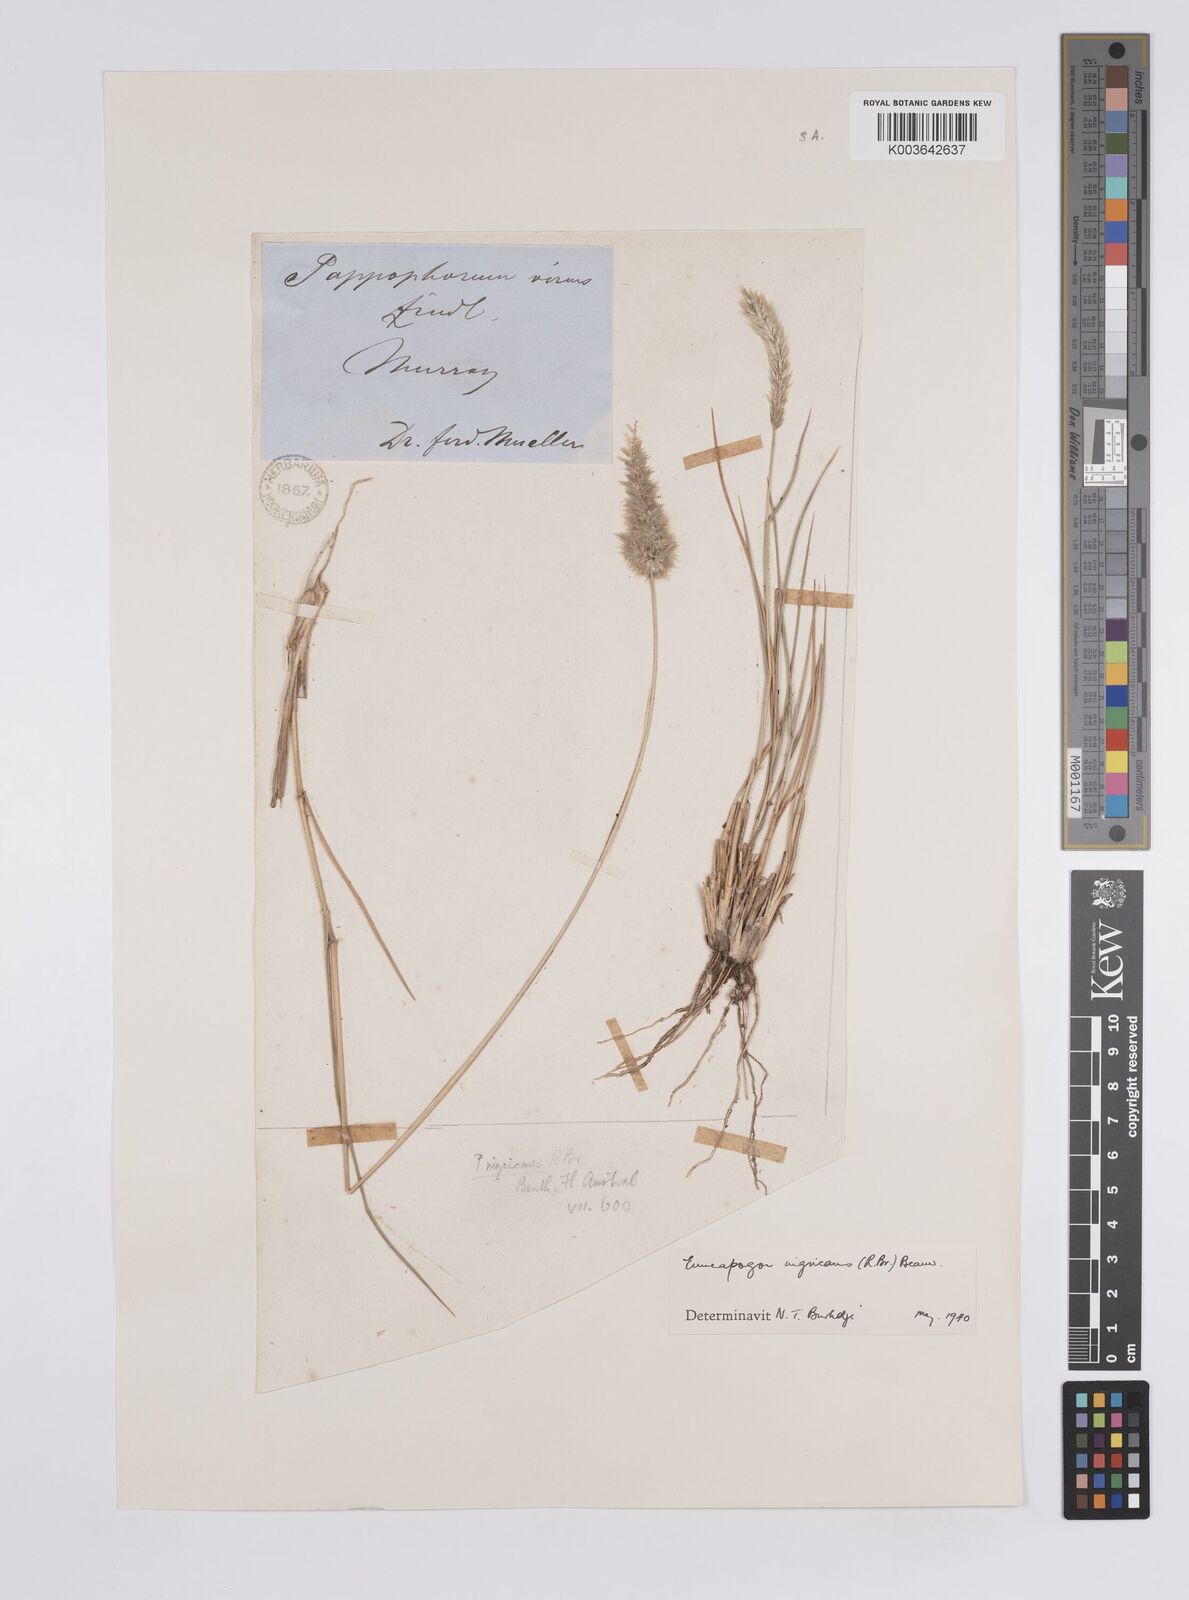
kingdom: Plantae
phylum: Tracheophyta
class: Liliopsida
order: Poales
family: Poaceae
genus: Enneapogon
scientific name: Enneapogon nigricans
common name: Pappus grass
